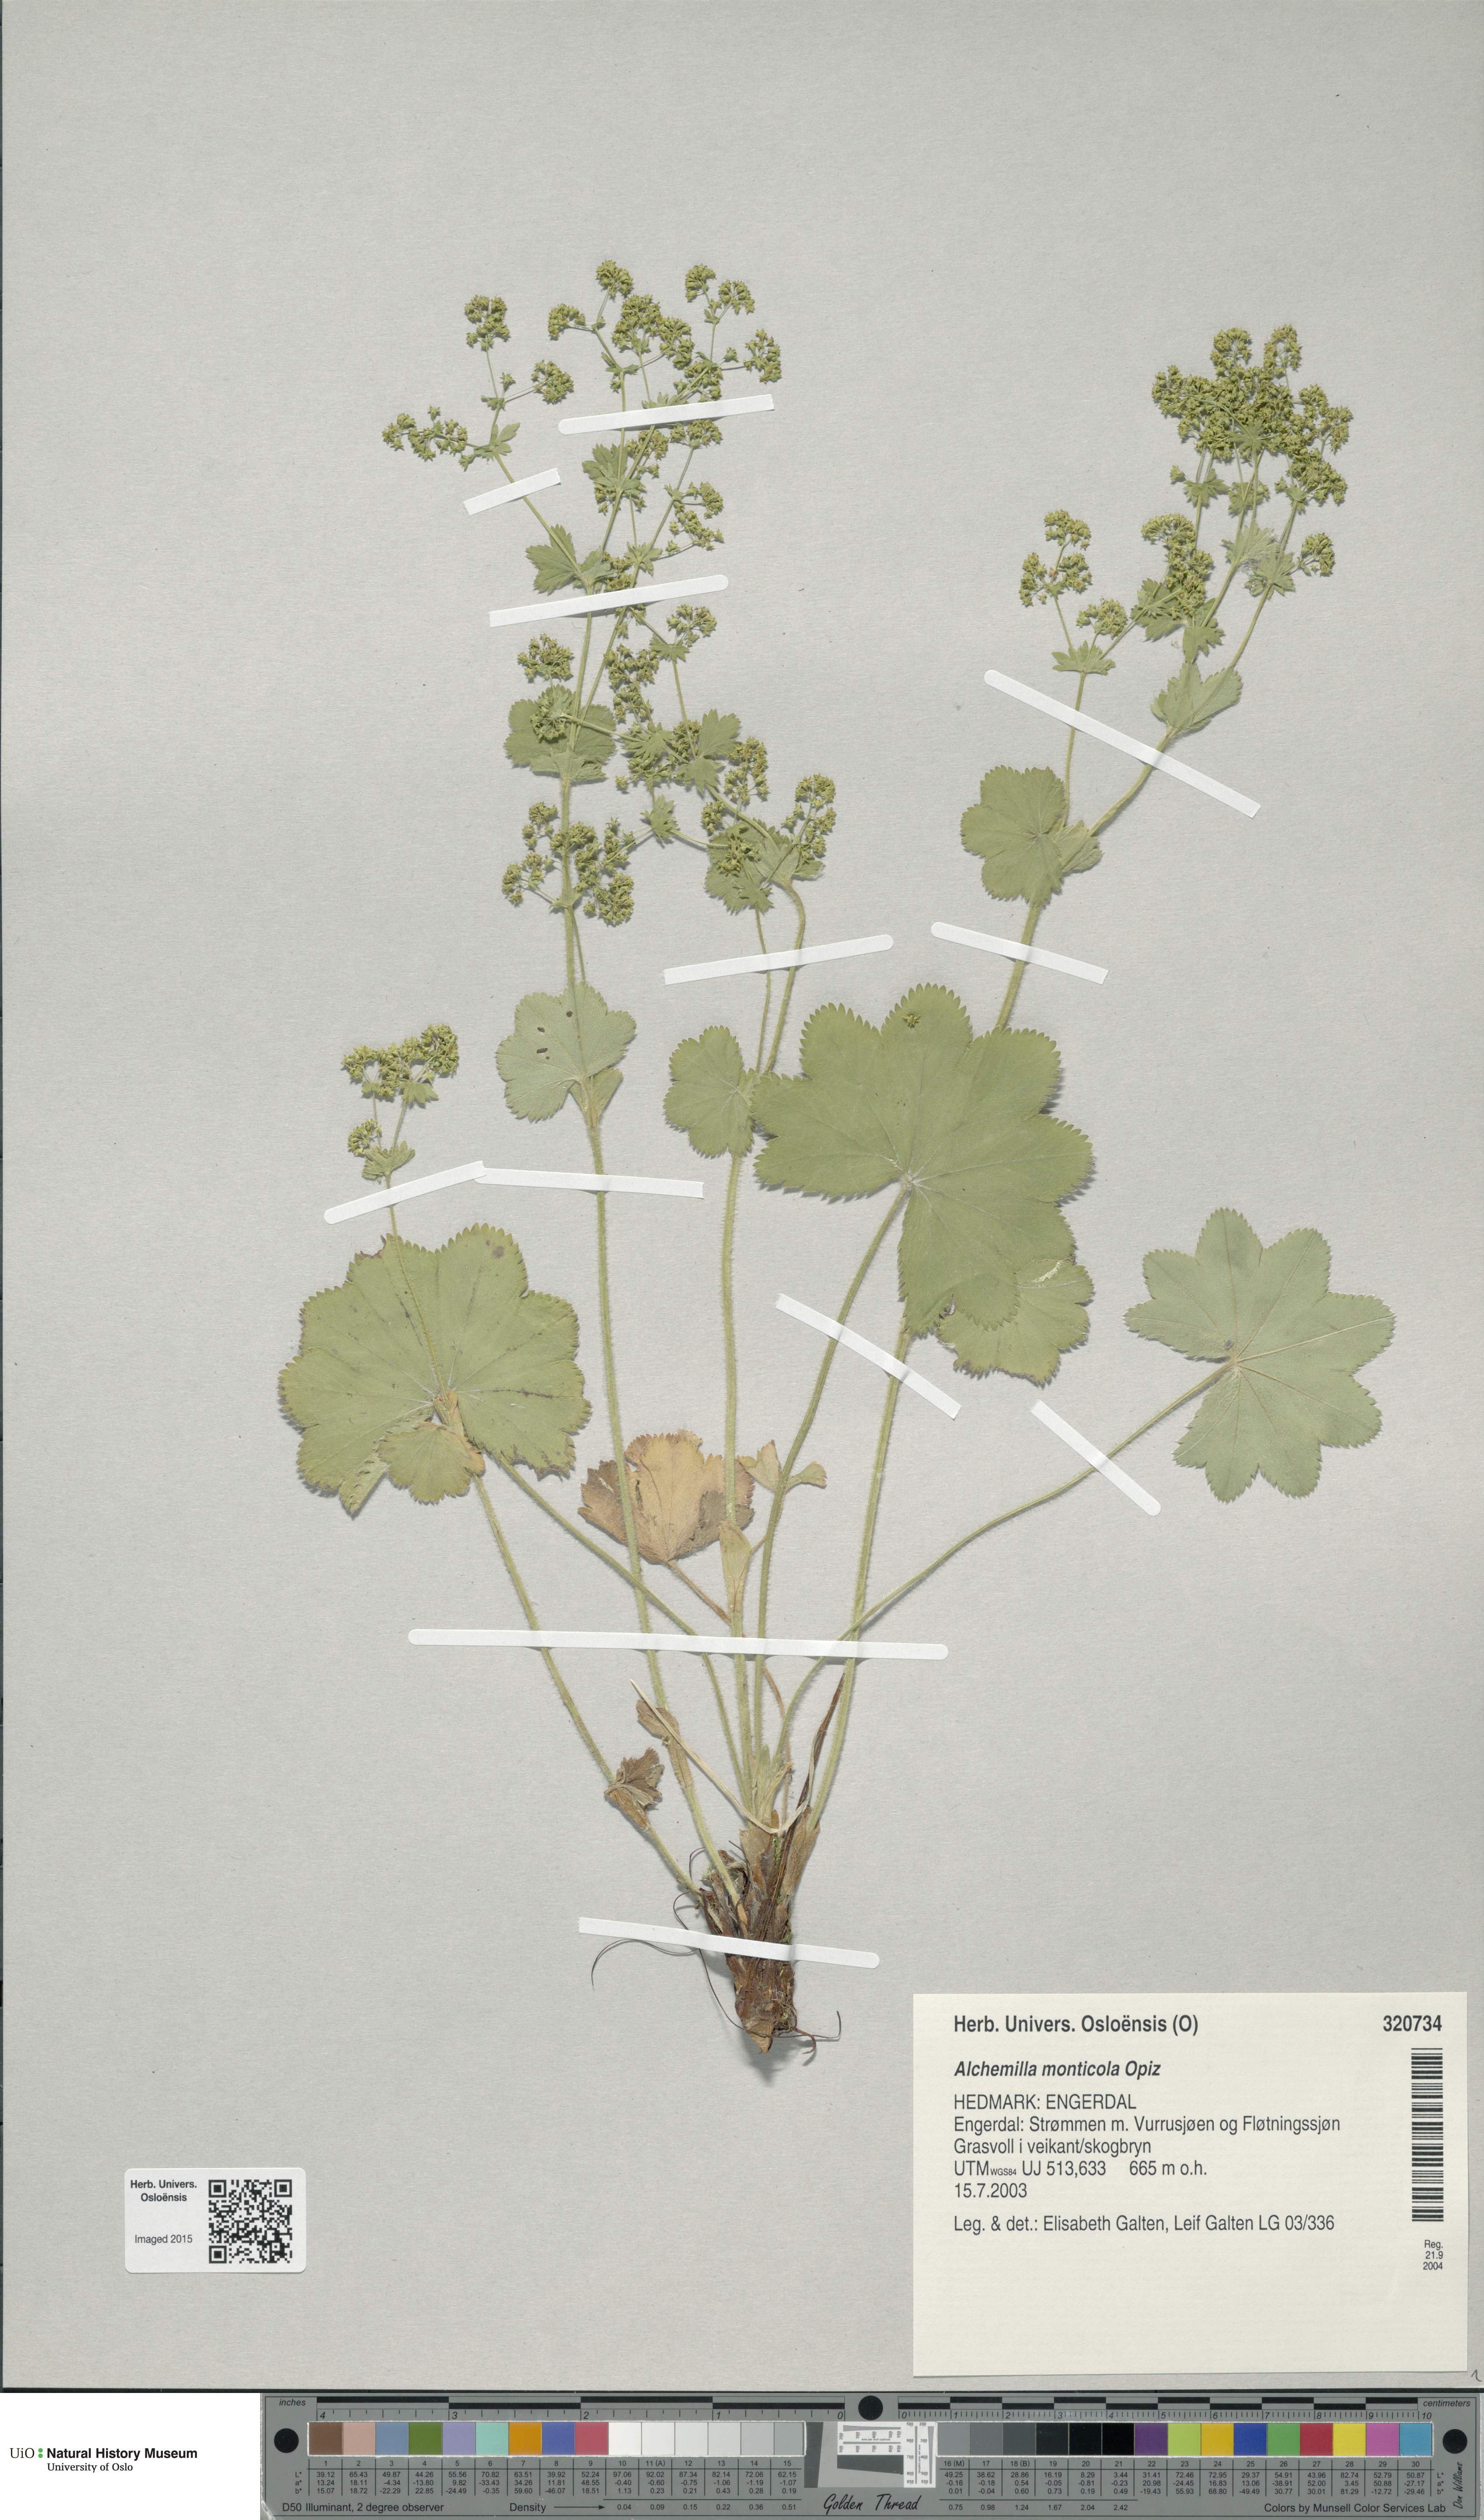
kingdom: Plantae
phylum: Tracheophyta
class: Magnoliopsida
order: Rosales
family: Rosaceae
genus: Alchemilla
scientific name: Alchemilla monticola
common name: Hairy lady's mantle
